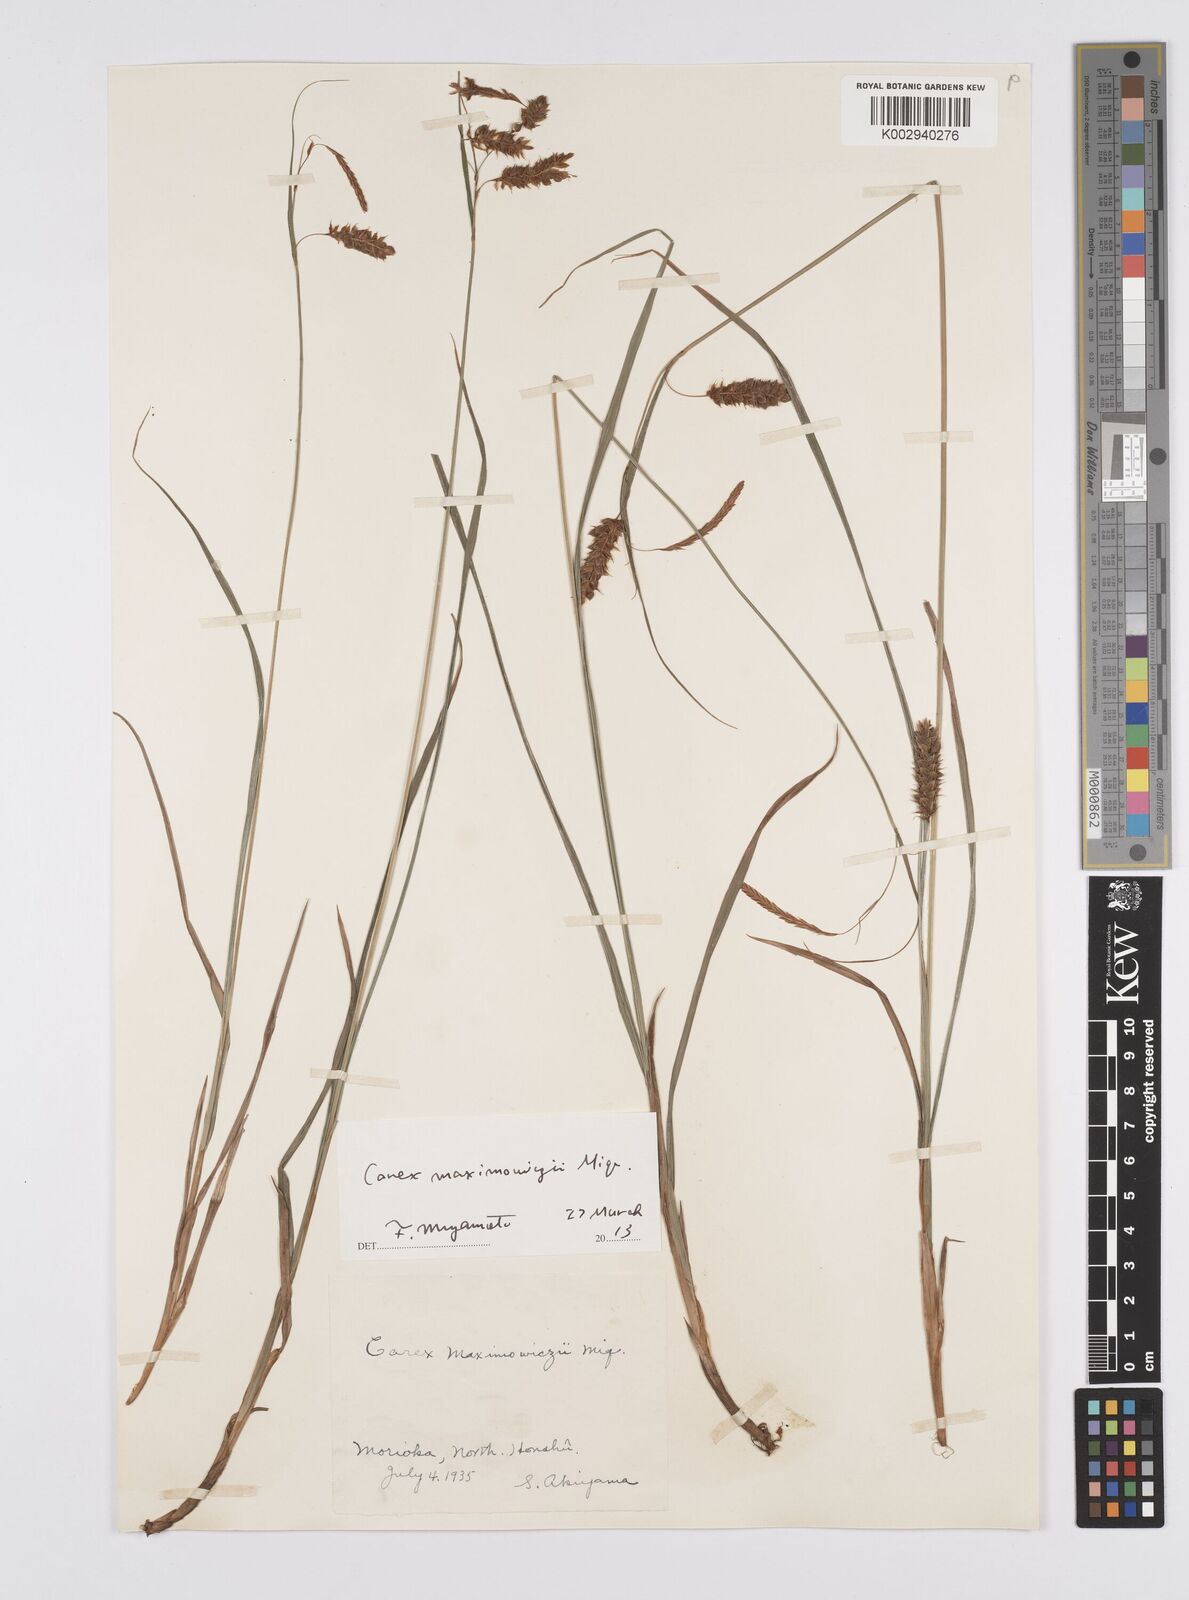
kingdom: Plantae
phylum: Tracheophyta
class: Liliopsida
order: Poales
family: Cyperaceae
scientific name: Cyperaceae
